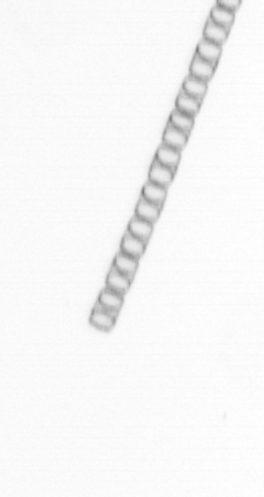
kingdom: Chromista
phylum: Ochrophyta
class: Bacillariophyceae
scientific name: Bacillariophyceae
